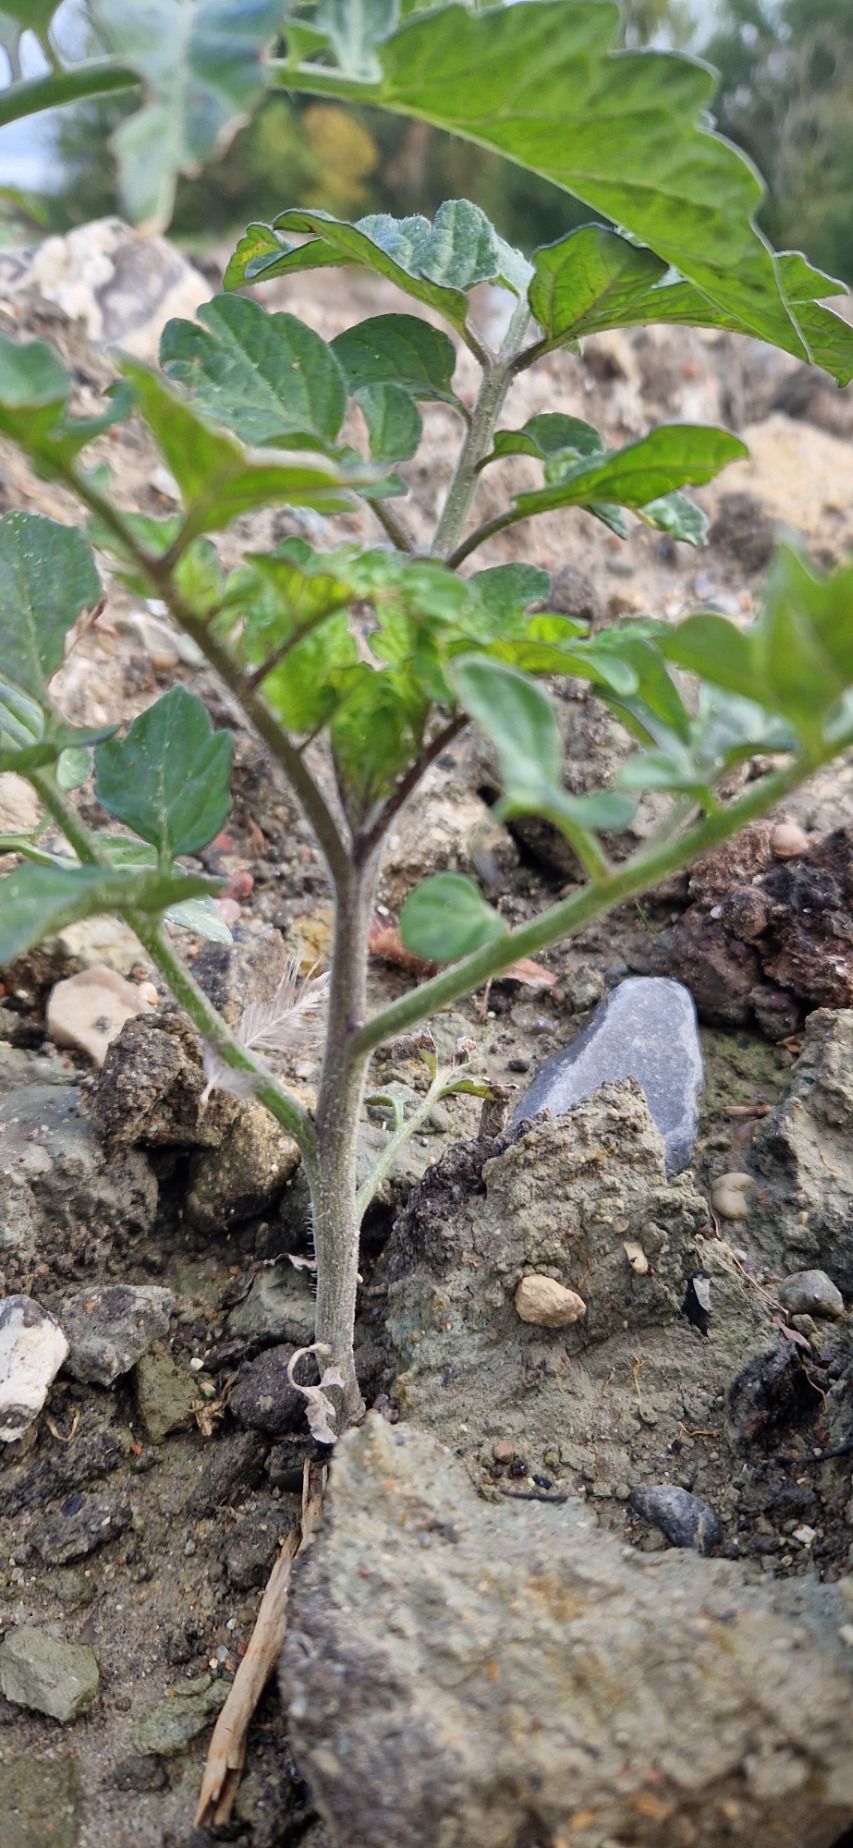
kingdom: Plantae
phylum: Tracheophyta
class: Magnoliopsida
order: Solanales
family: Solanaceae
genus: Solanum
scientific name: Solanum lycopersicum
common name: Tomat
